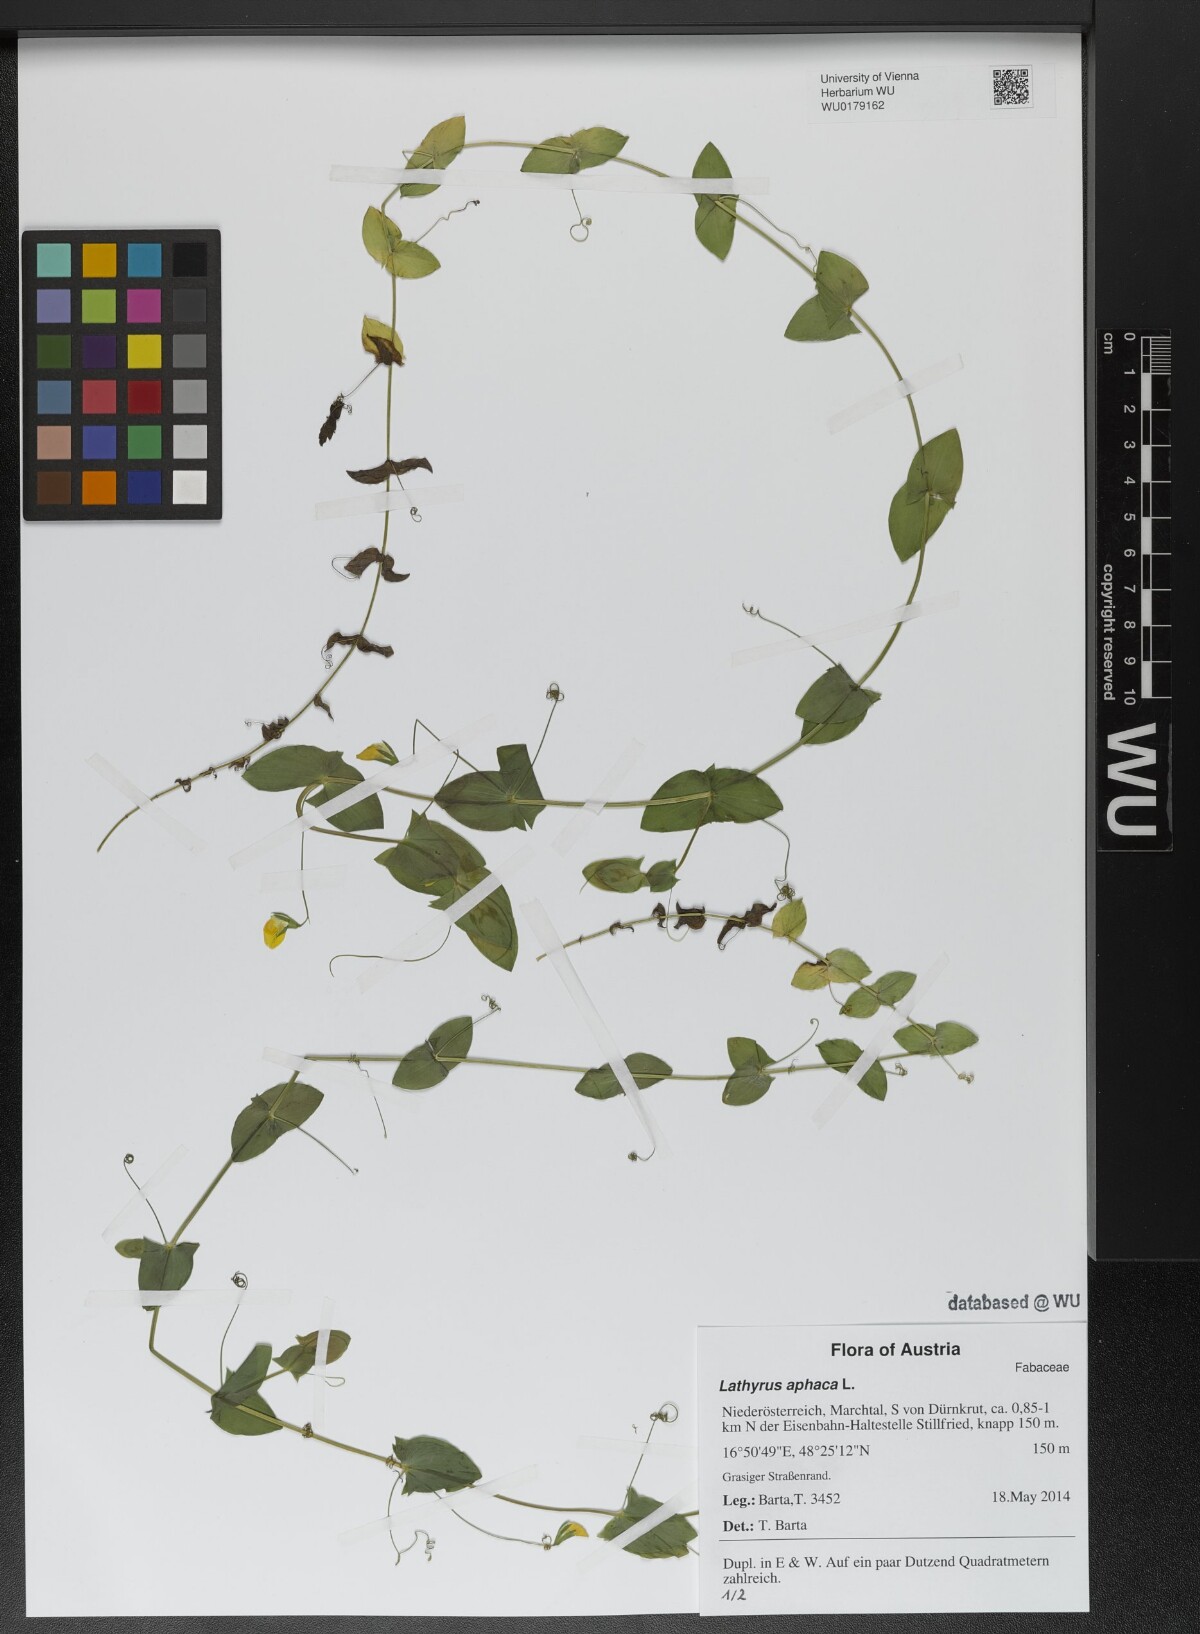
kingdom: Plantae
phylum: Tracheophyta
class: Magnoliopsida
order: Fabales
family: Fabaceae
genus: Lathyrus
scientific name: Lathyrus aphaca
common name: Yellow vetchling
